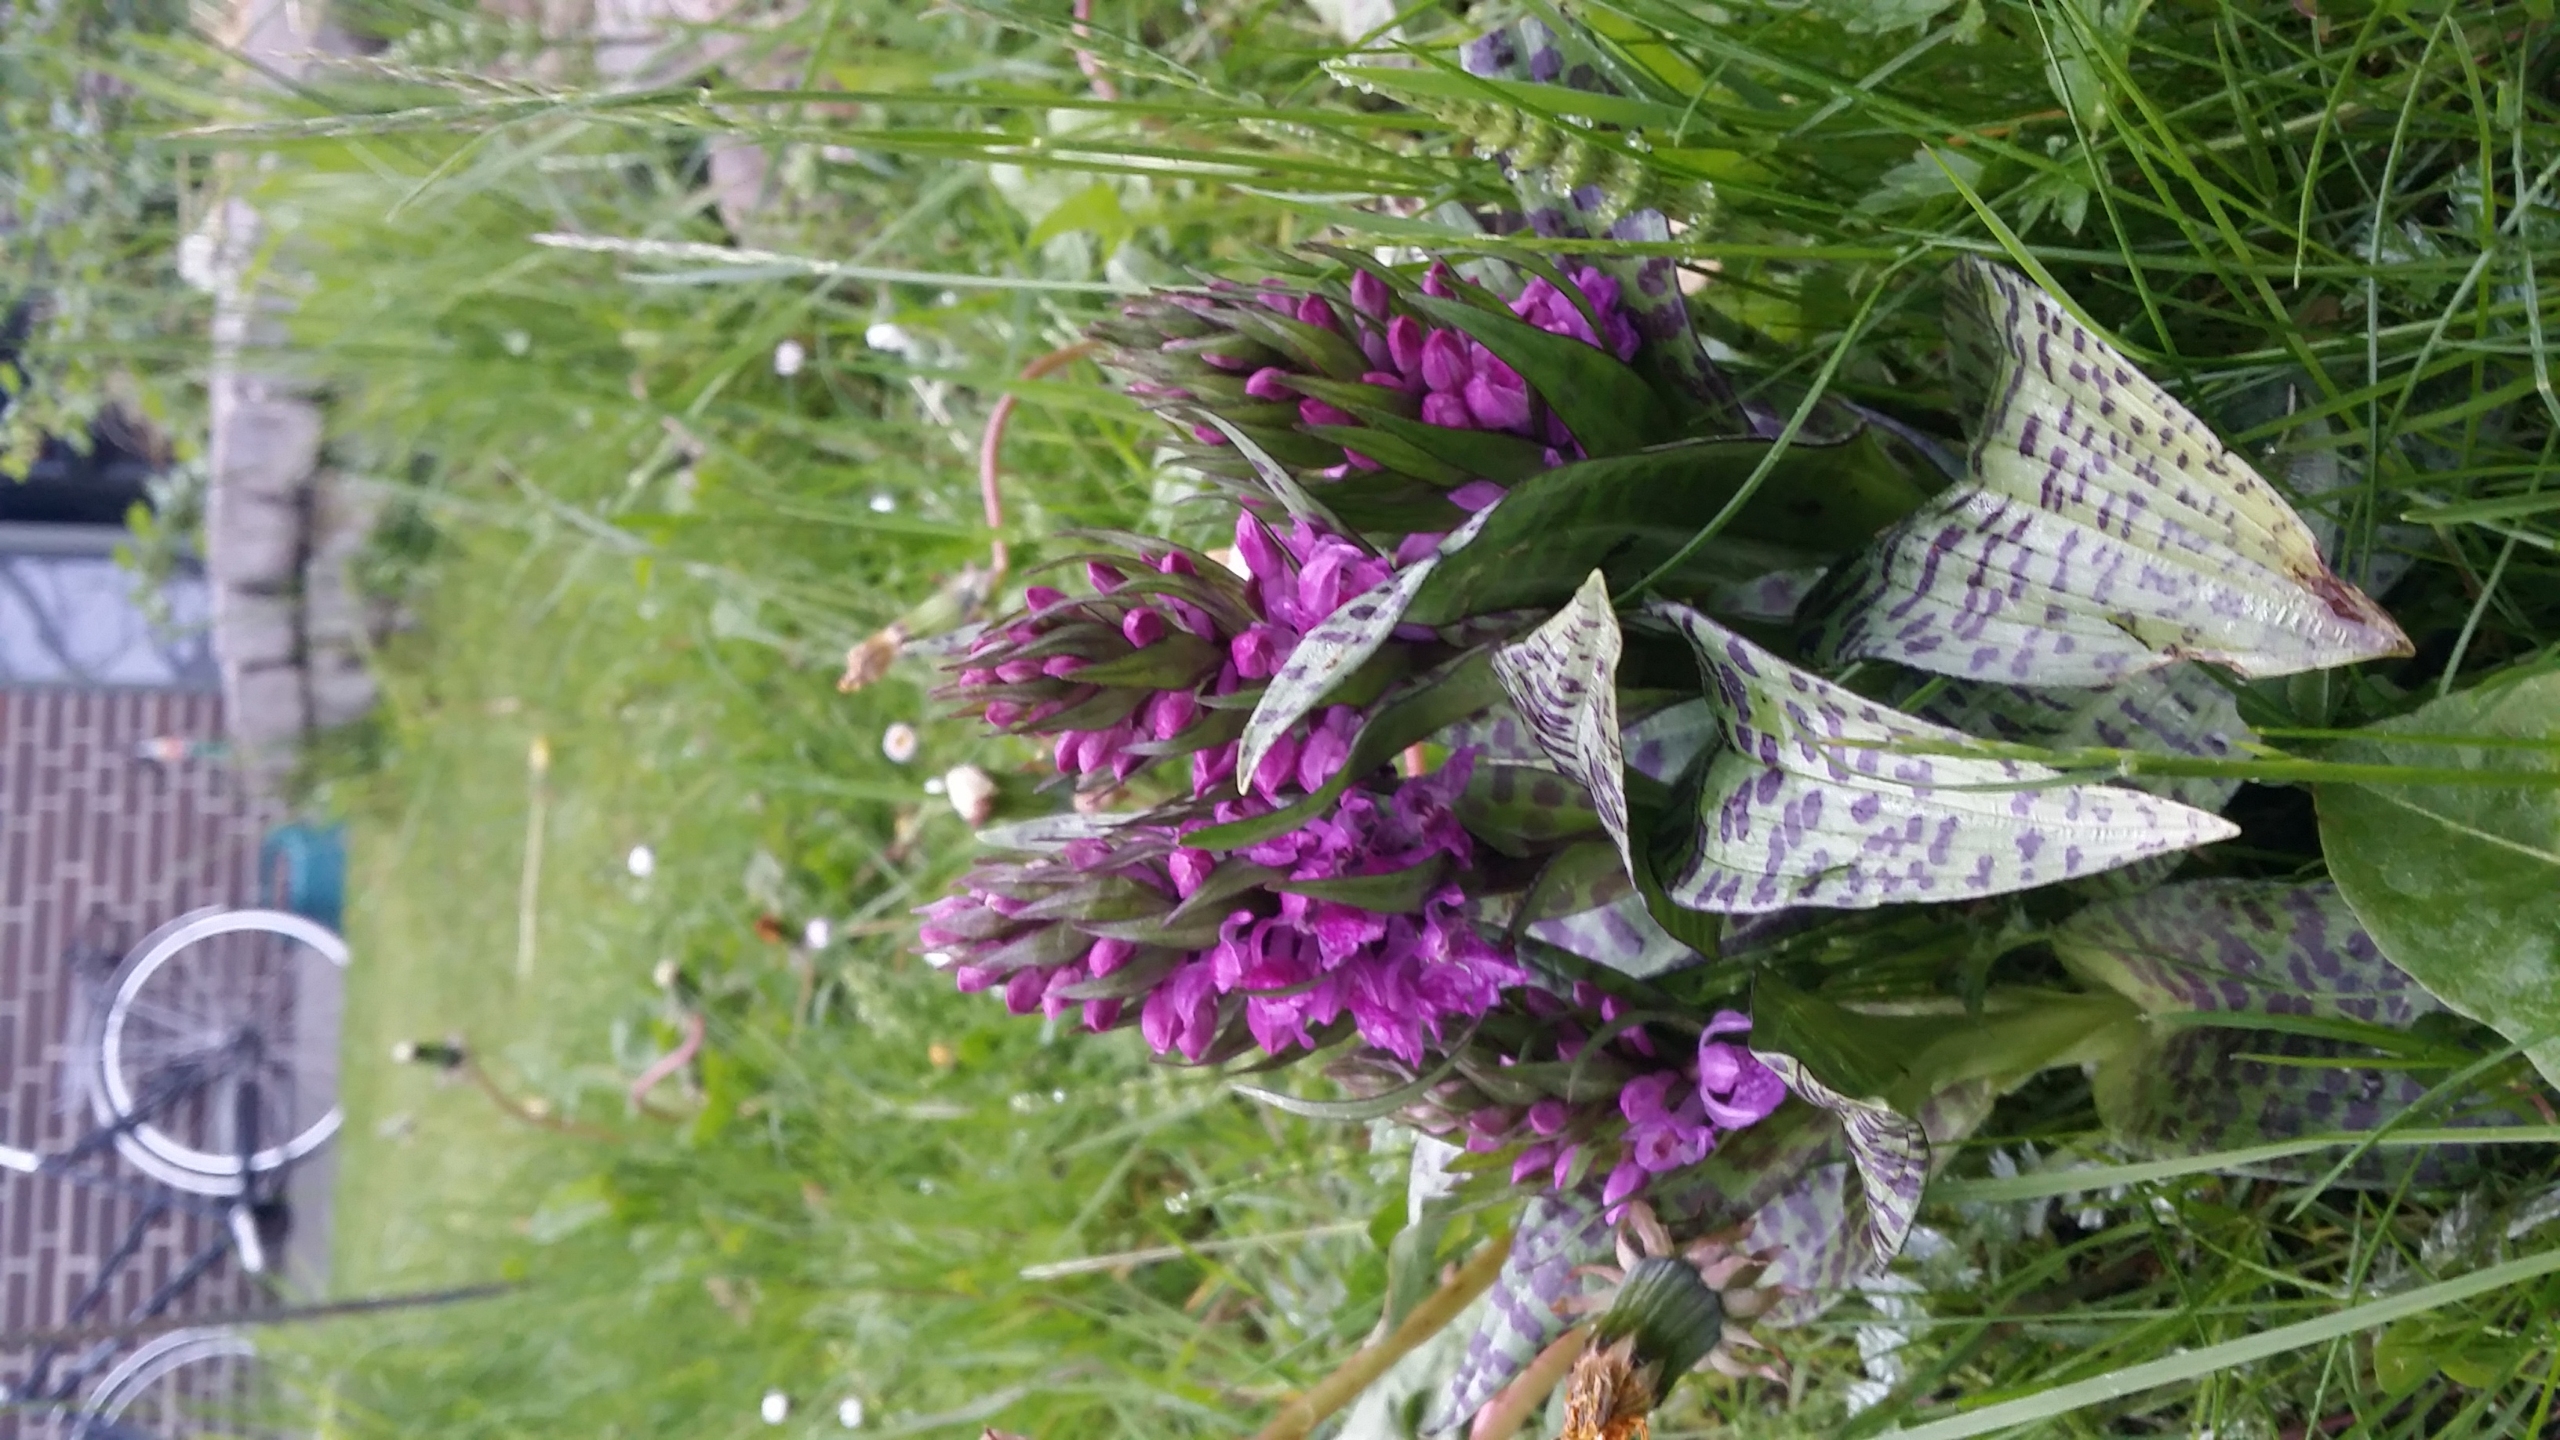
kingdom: Plantae
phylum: Tracheophyta
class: Liliopsida
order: Asparagales
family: Orchidaceae
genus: Dactylorhiza
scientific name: Dactylorhiza majalis
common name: Maj-gøgeurt (underart)
